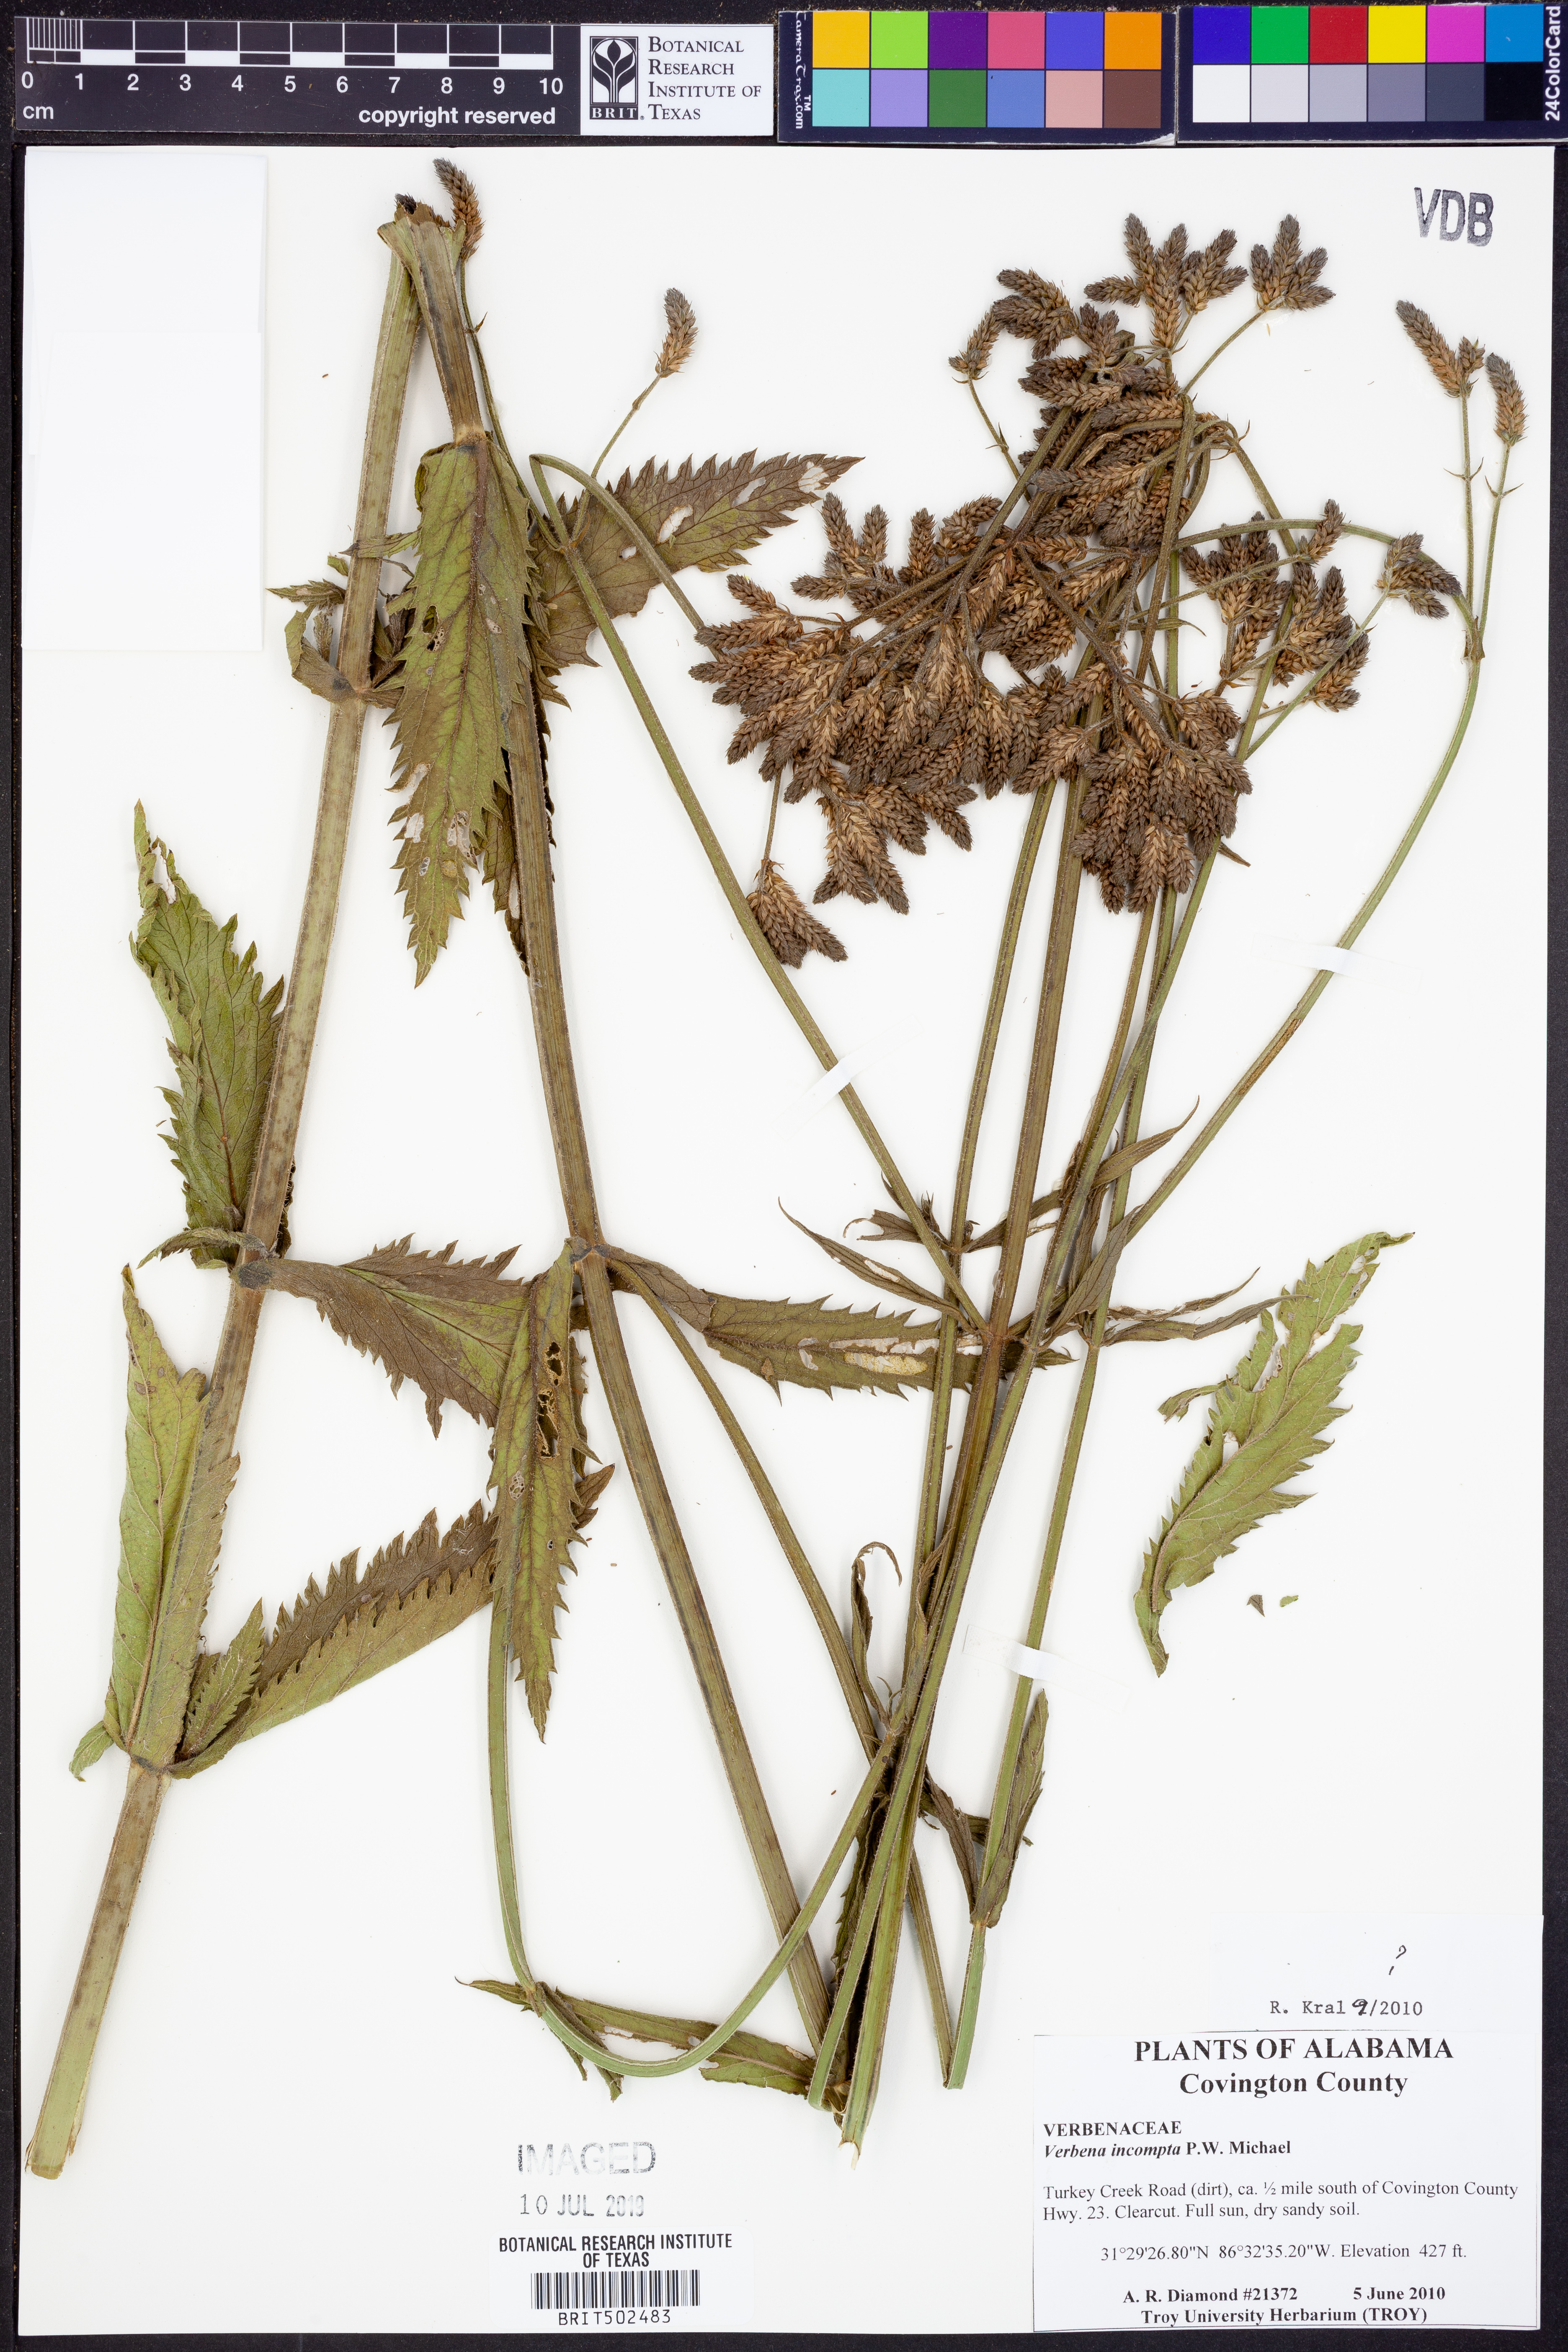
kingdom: Plantae
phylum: Tracheophyta
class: Magnoliopsida
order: Lamiales
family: Verbenaceae
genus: Verbena
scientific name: Verbena incompta
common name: Purpletop vervain
